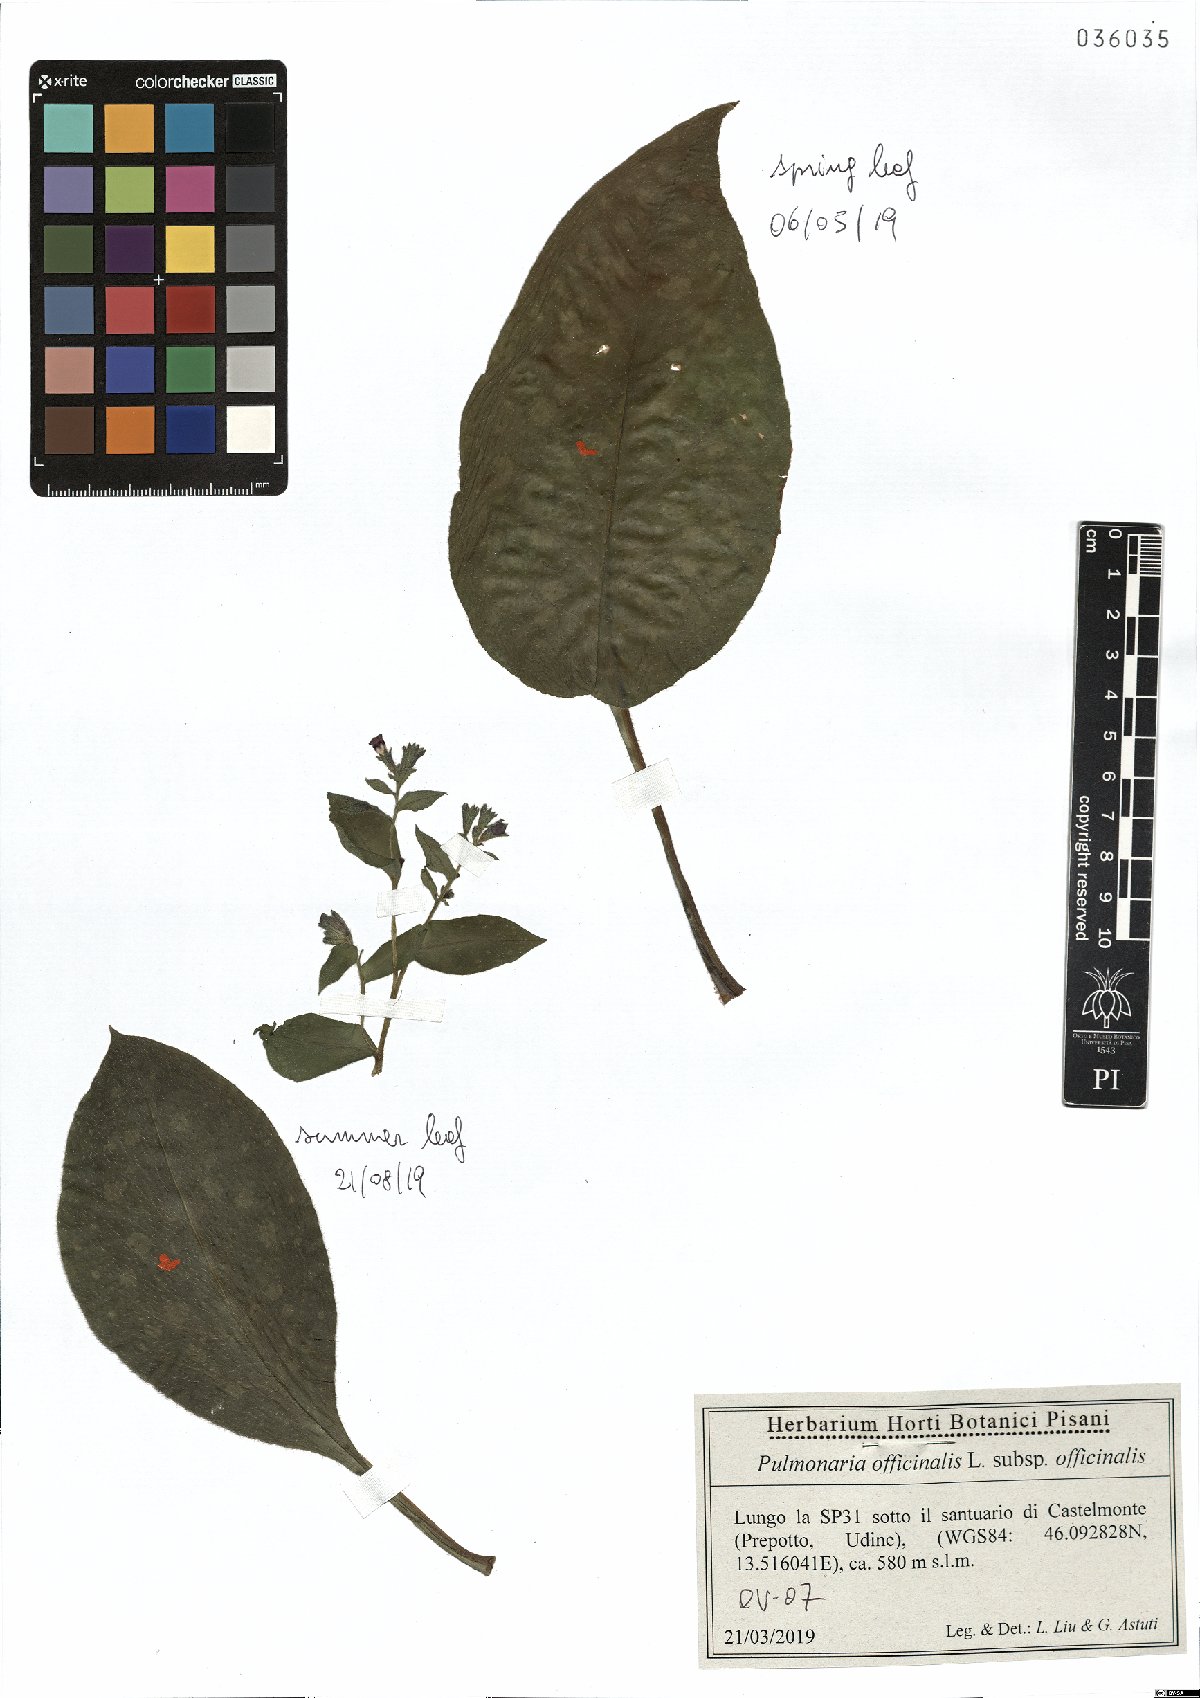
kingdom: Plantae
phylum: Tracheophyta
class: Magnoliopsida
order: Boraginales
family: Boraginaceae
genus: Pulmonaria
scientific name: Pulmonaria officinalis
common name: Lungwort
